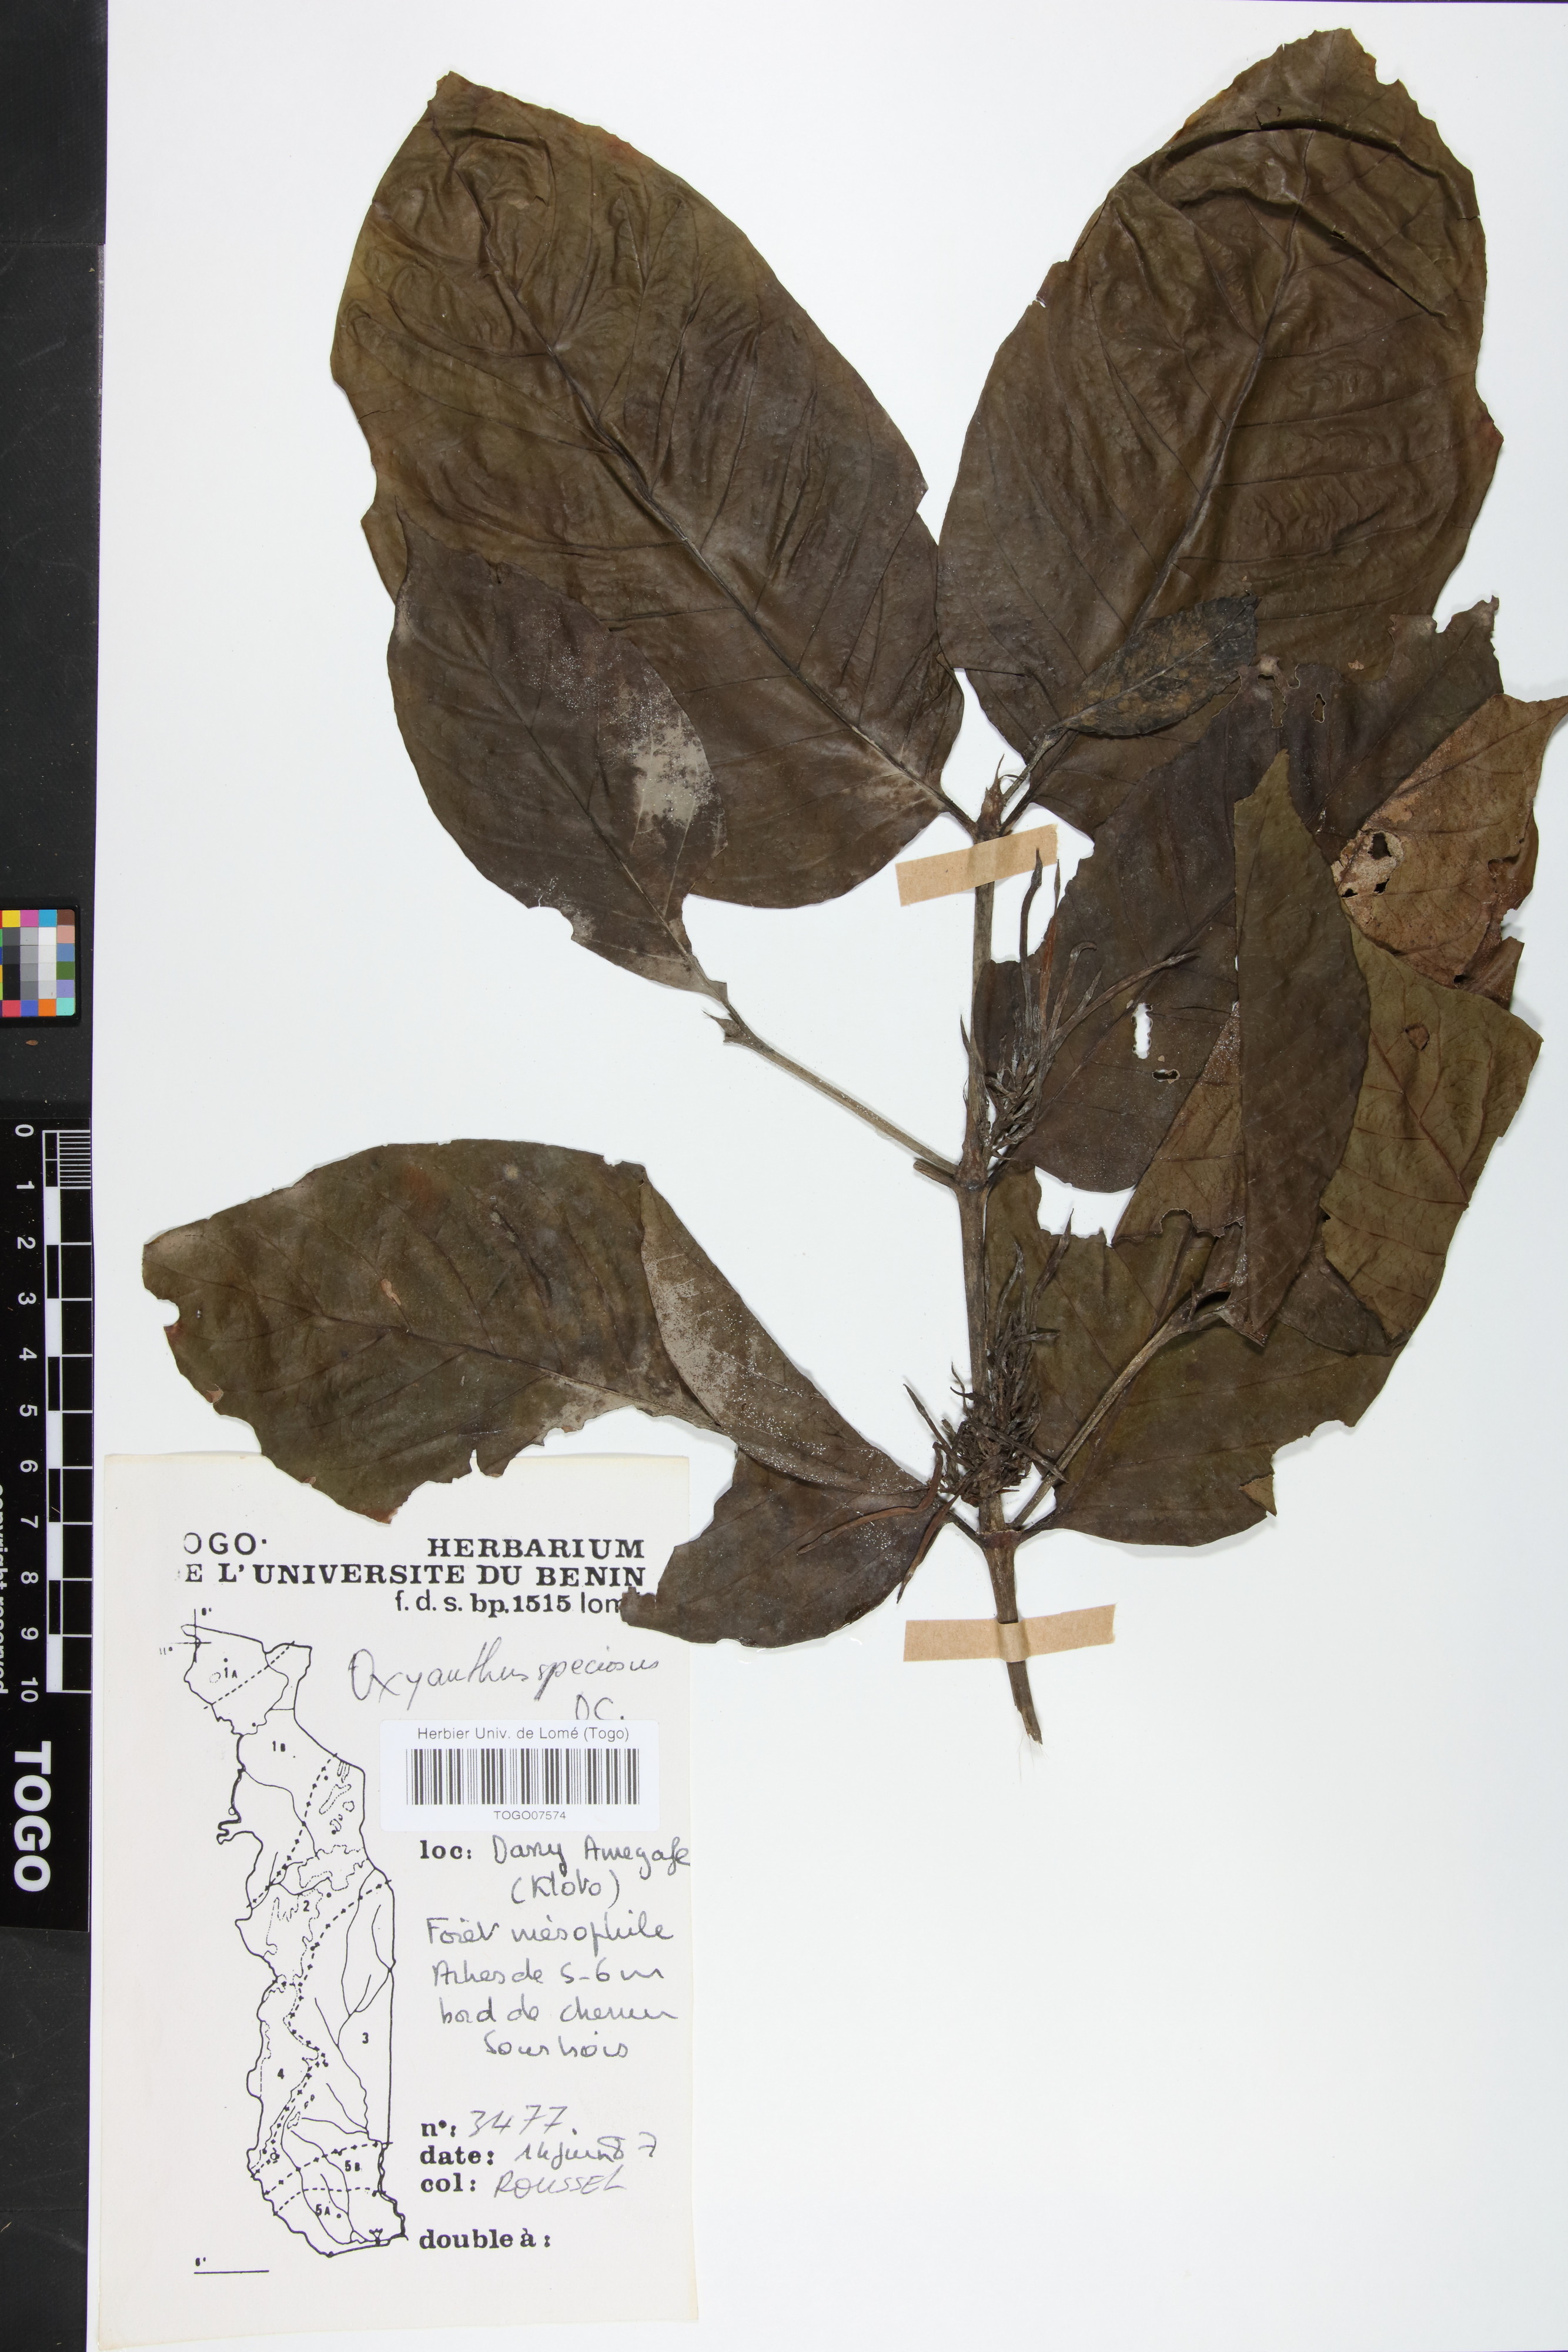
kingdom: Plantae
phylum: Tracheophyta
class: Magnoliopsida
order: Gentianales
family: Rubiaceae
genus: Oxyanthus
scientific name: Oxyanthus speciosus
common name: Whipstick loquat
